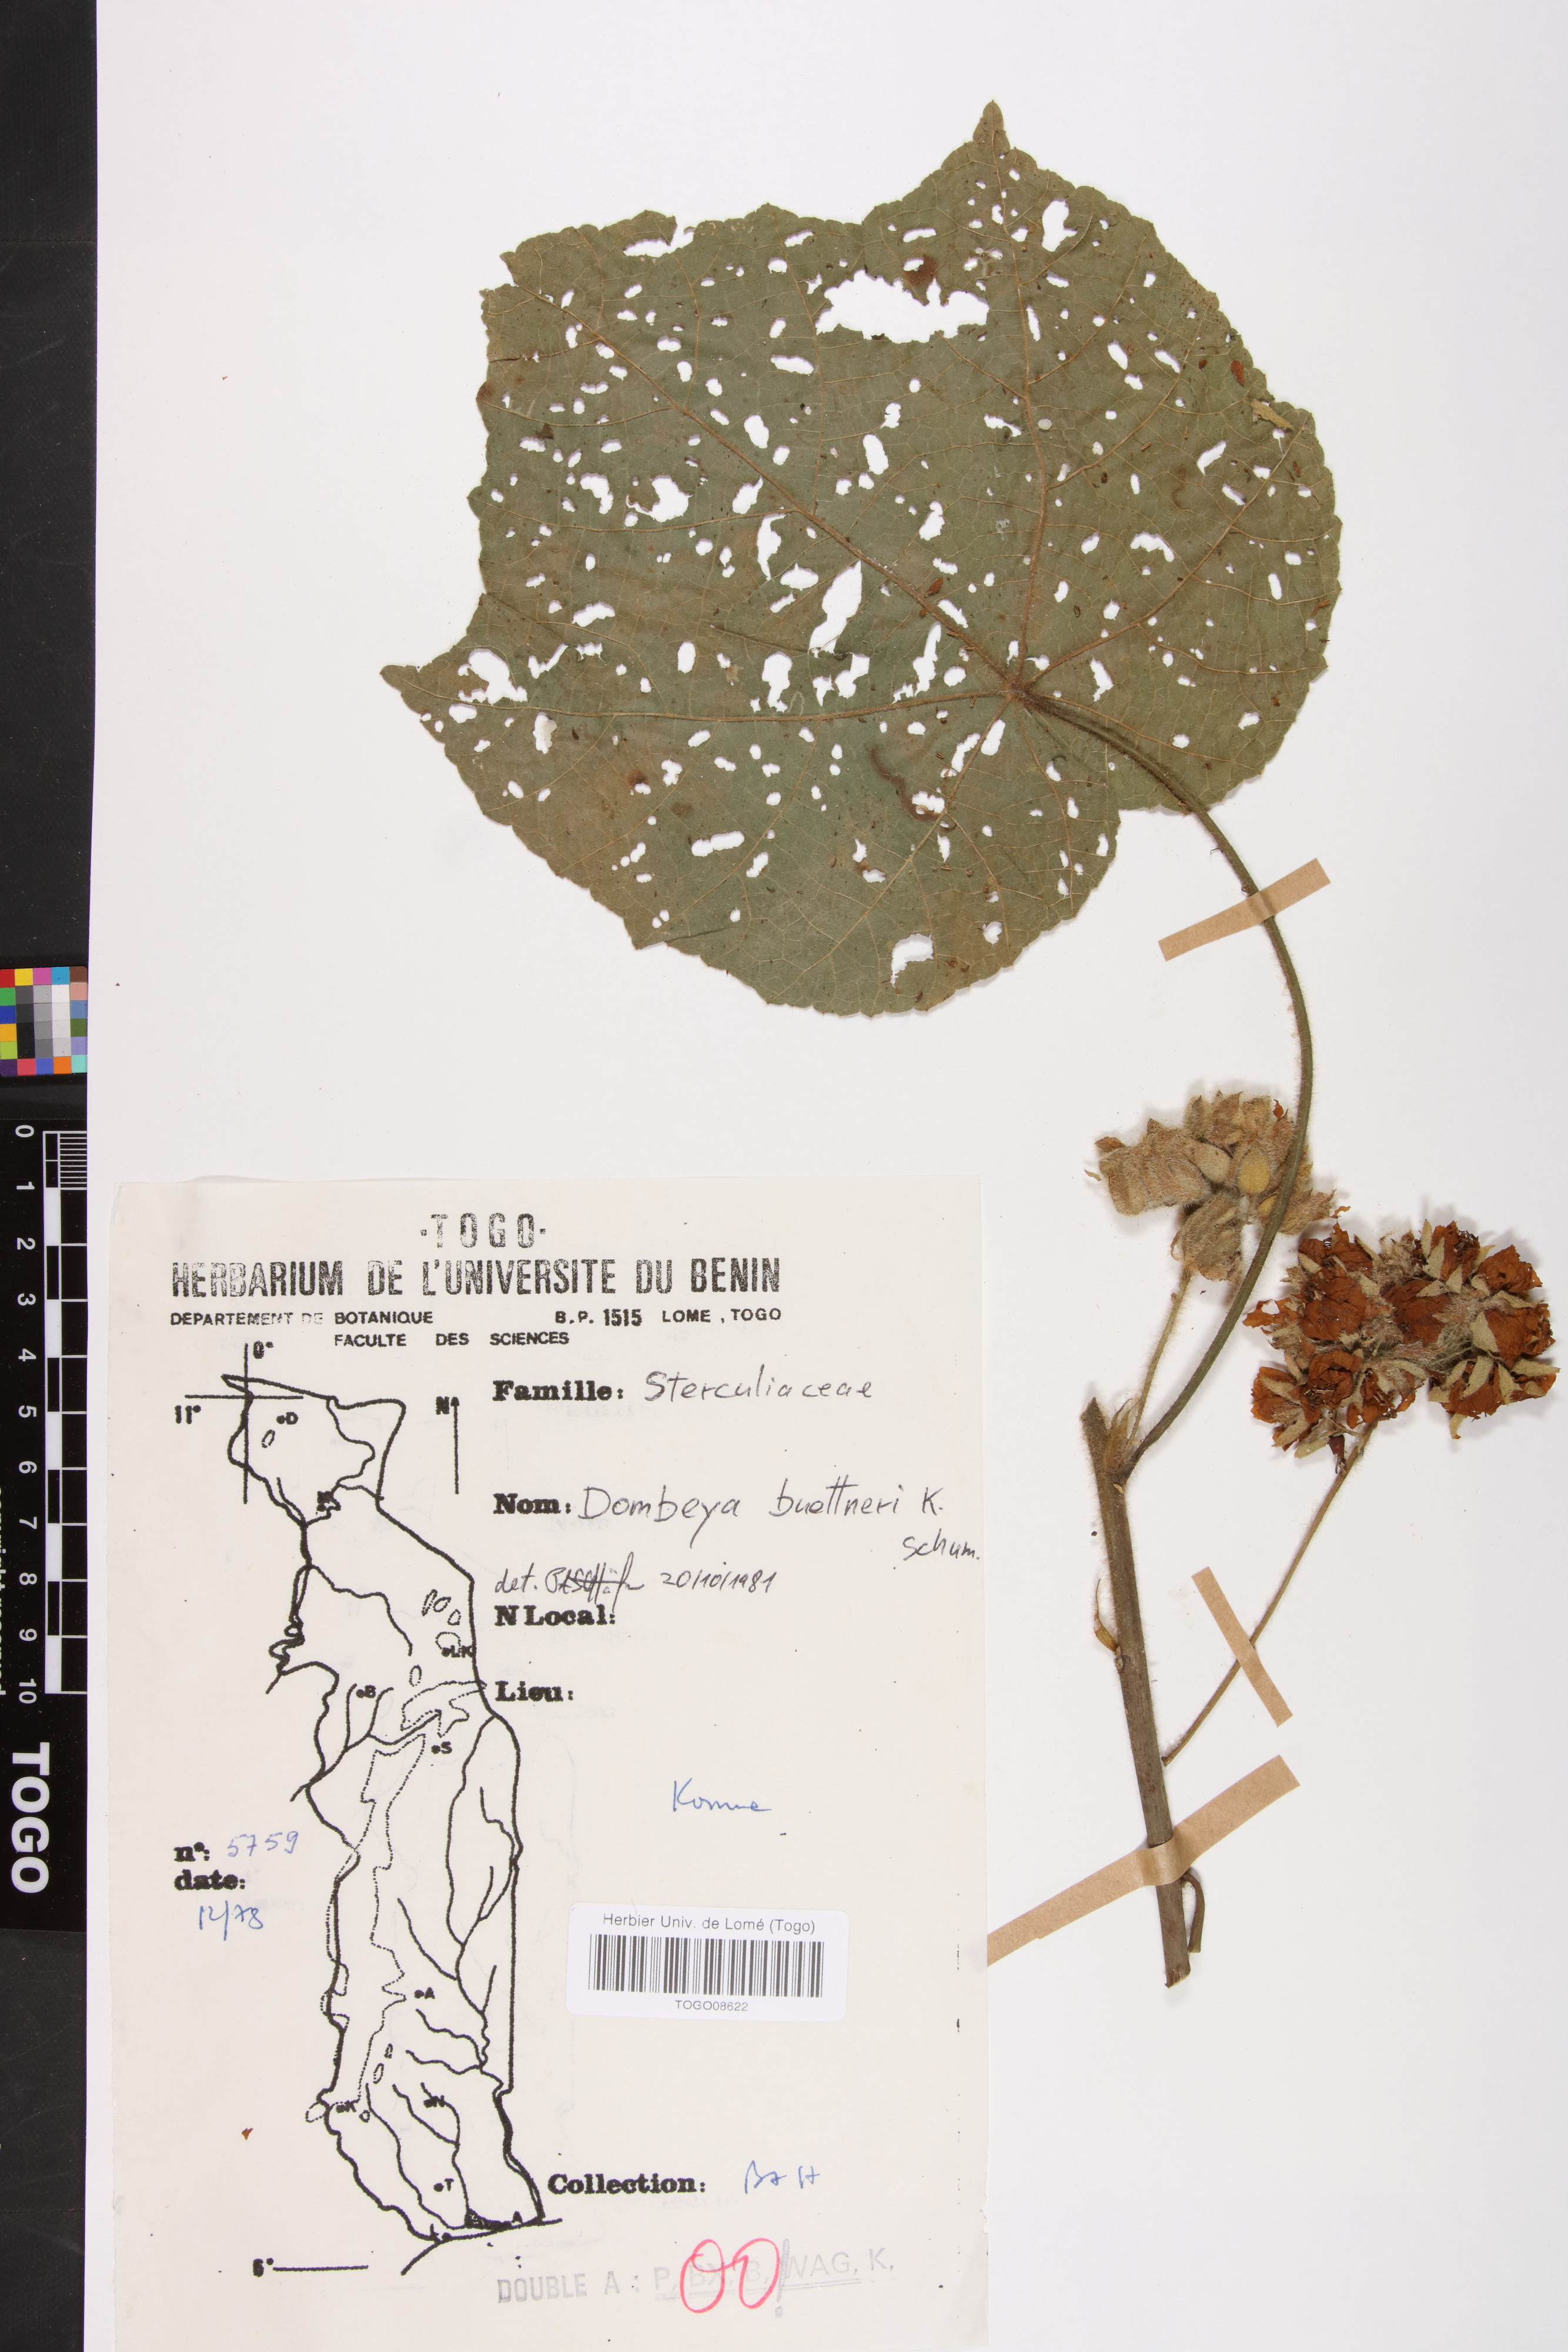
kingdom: Plantae
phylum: Tracheophyta
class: Magnoliopsida
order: Malvales
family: Malvaceae
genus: Dombeya
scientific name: Dombeya buettneri
